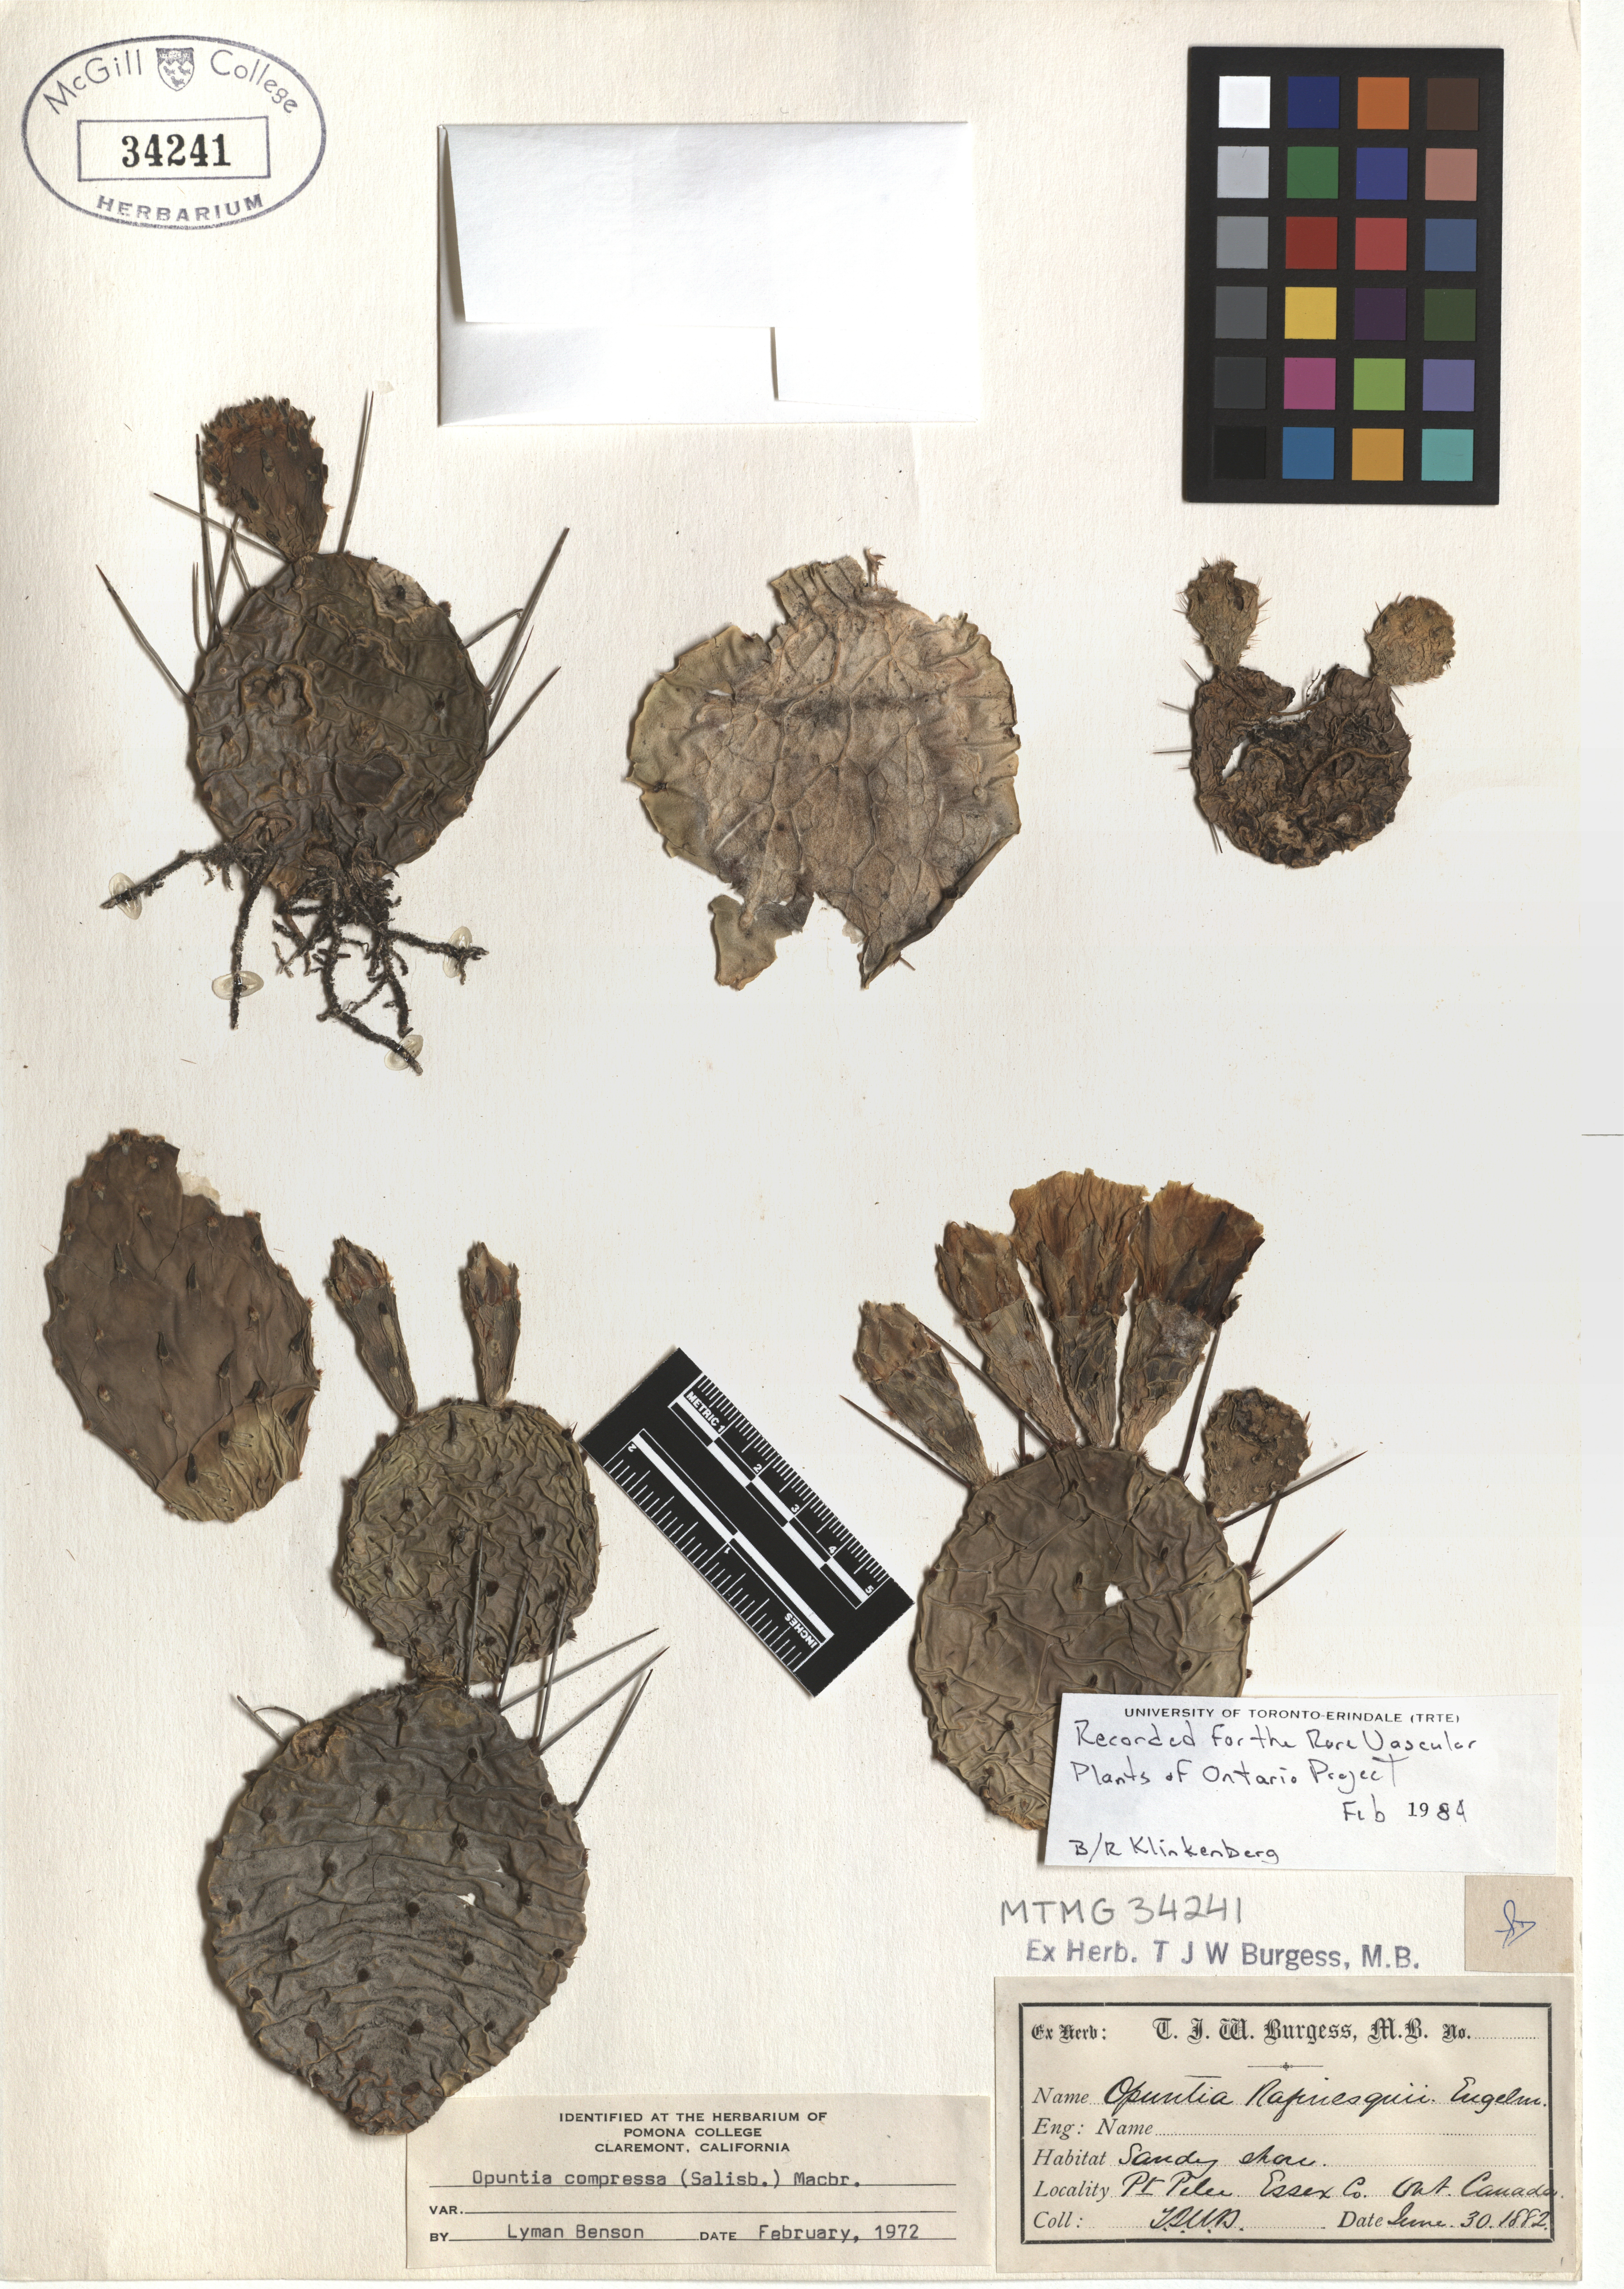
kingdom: Plantae
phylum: Tracheophyta
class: Magnoliopsida
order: Caryophyllales
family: Cactaceae
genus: Opuntia
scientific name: Opuntia humifusa
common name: Eastern prickly-pear
